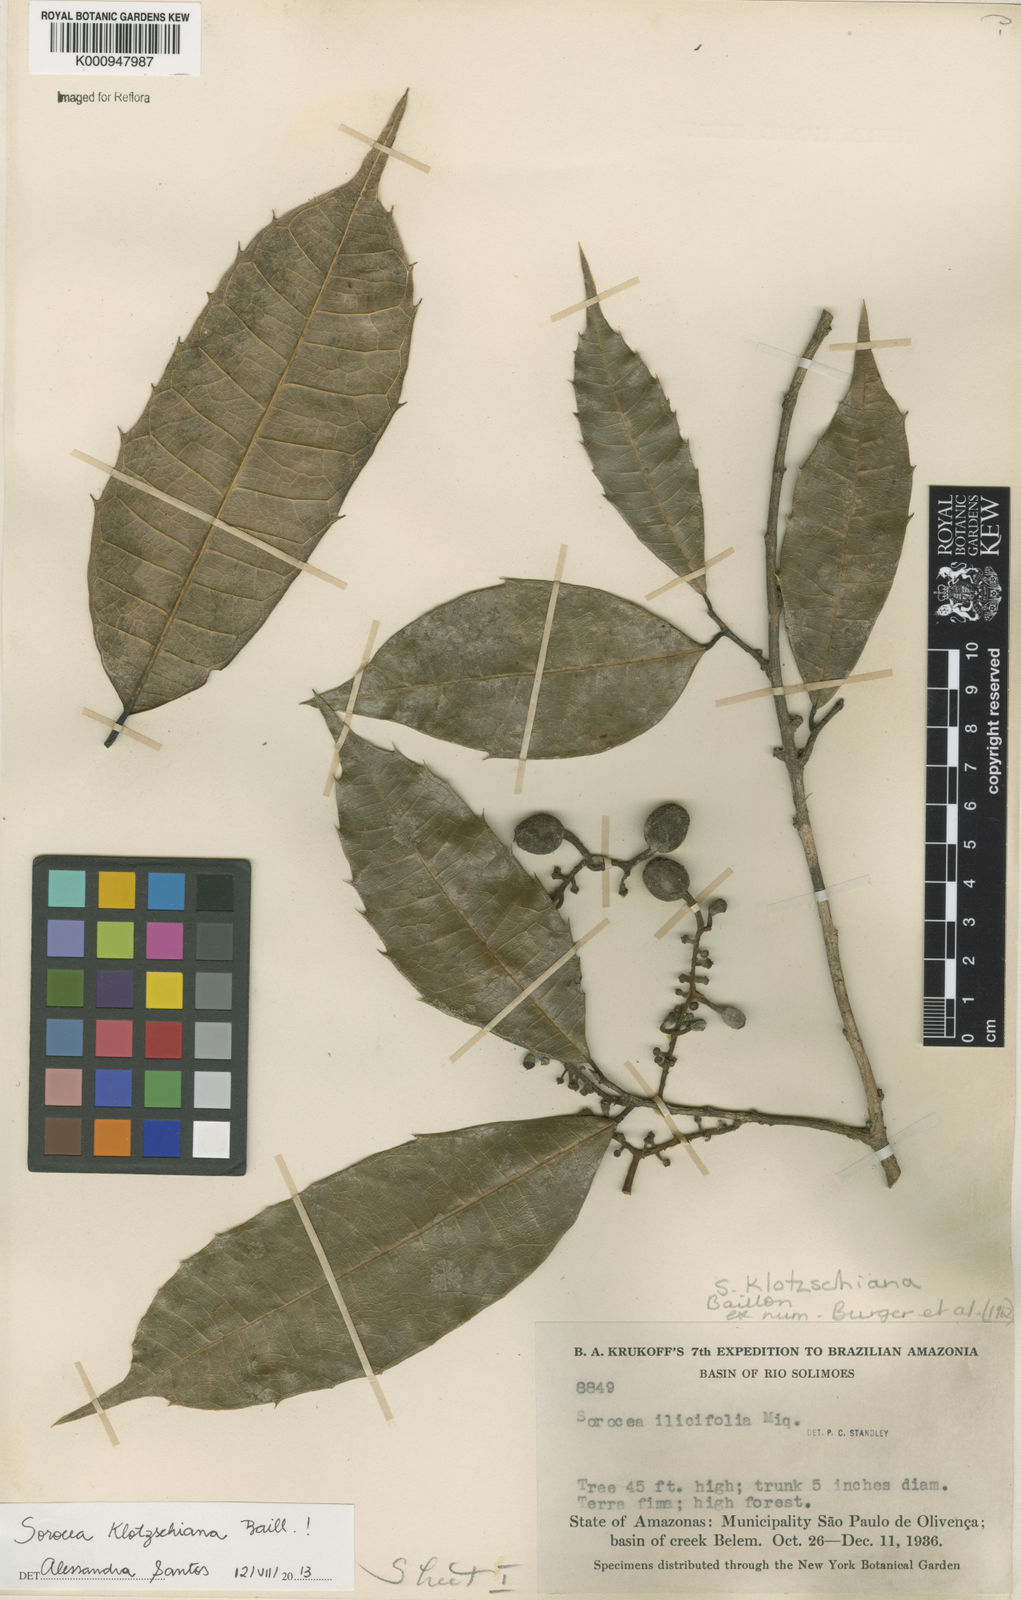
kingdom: Plantae
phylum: Tracheophyta
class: Magnoliopsida
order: Rosales
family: Moraceae
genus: Sorocea
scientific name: Sorocea guilleminiana
